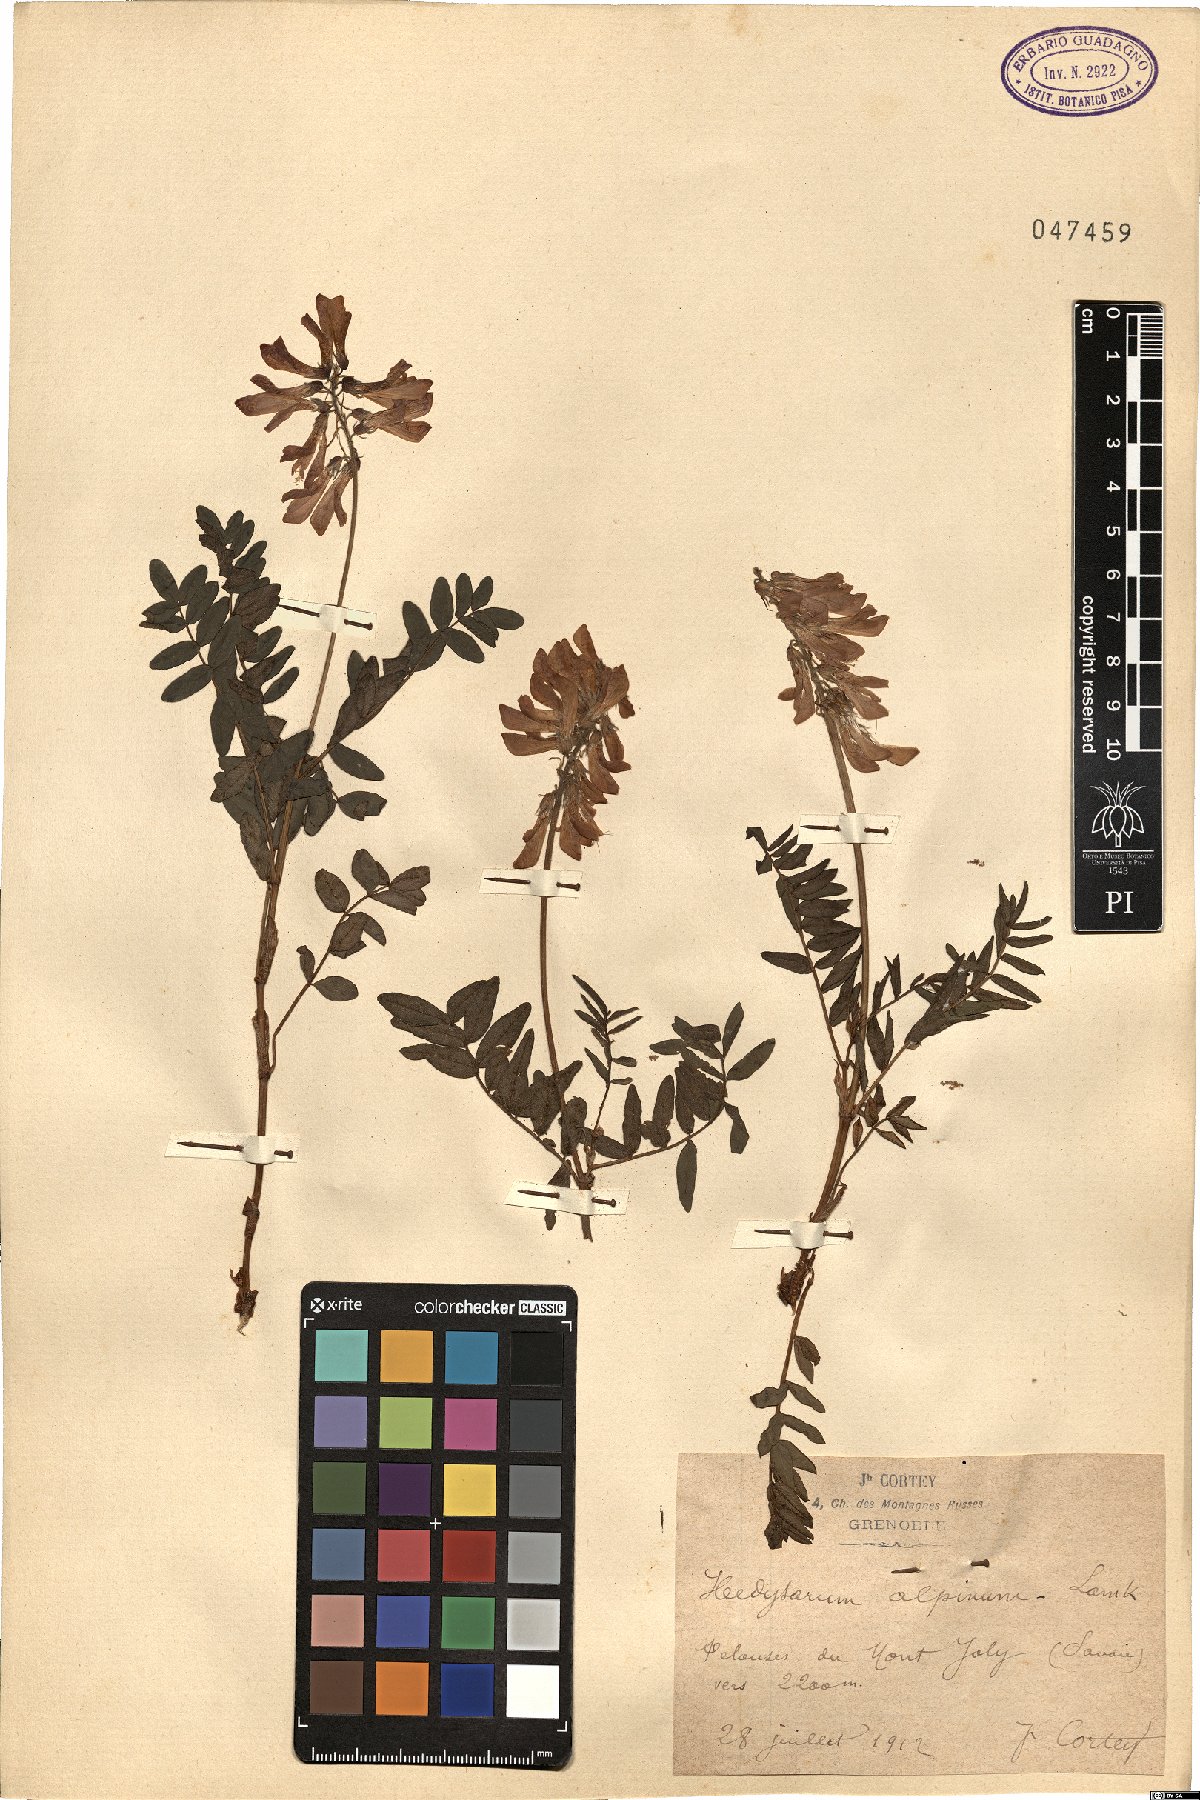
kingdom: Plantae
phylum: Tracheophyta
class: Magnoliopsida
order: Fabales
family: Fabaceae
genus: Hedysarum
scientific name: Hedysarum alpinum
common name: Alpine sweet-vetch
